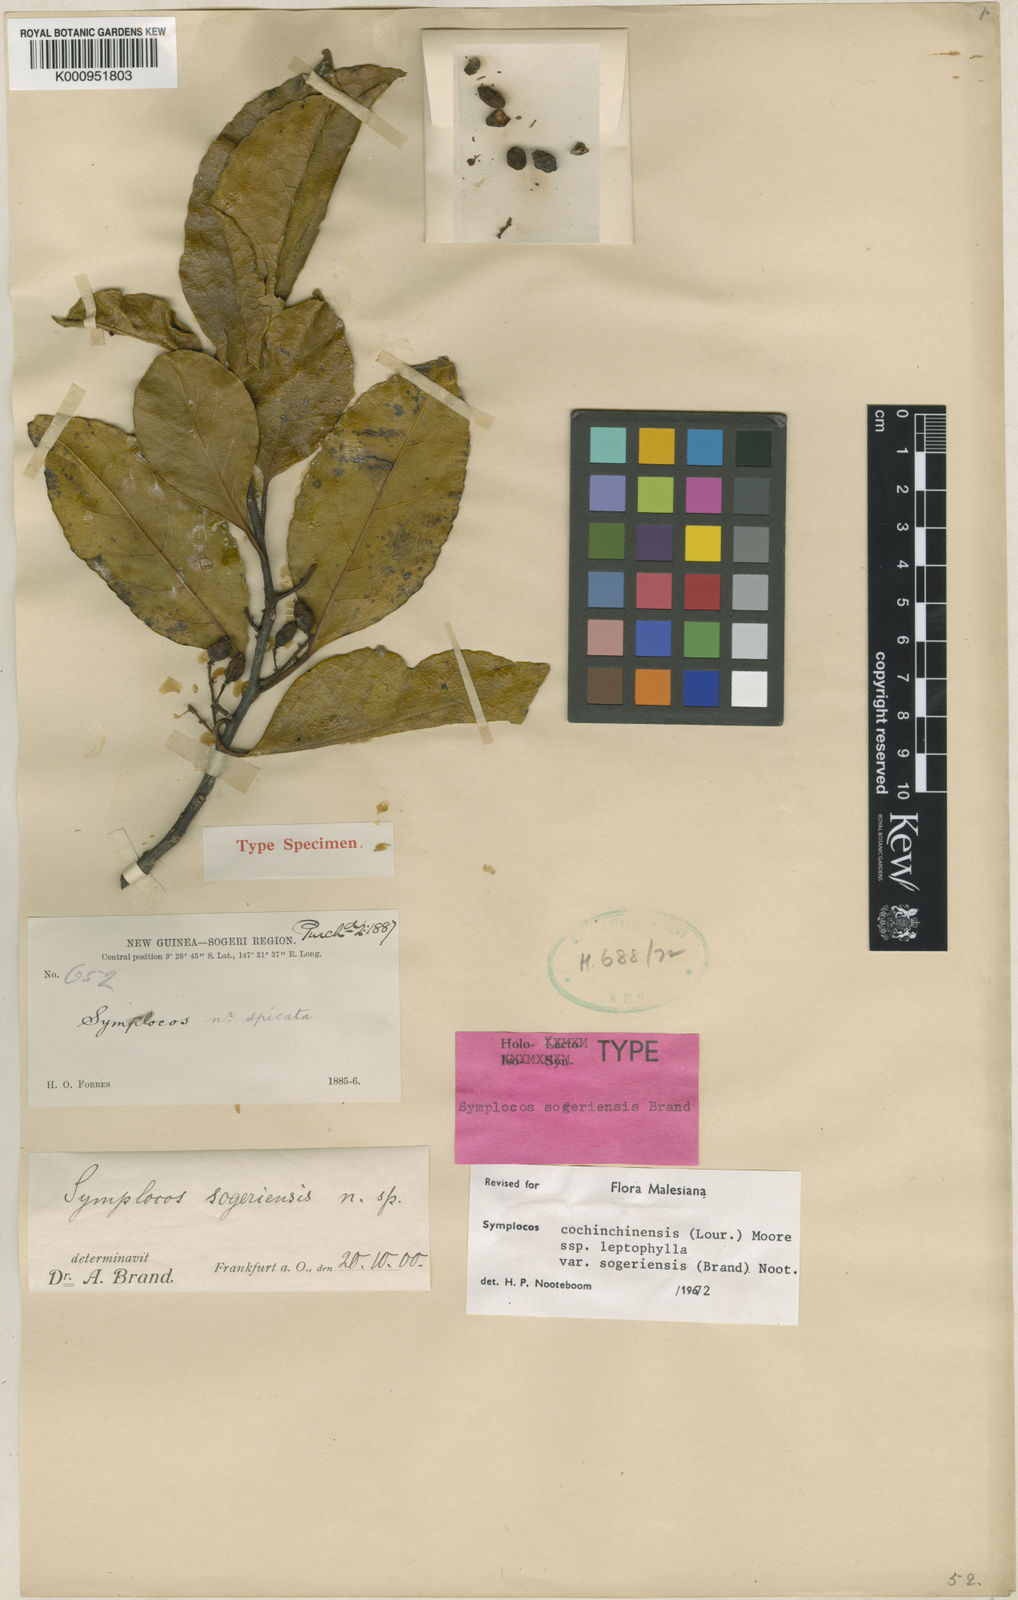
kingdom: Plantae
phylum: Tracheophyta
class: Magnoliopsida
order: Ericales
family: Symplocaceae
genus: Symplocos
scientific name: Symplocos cochinchinensis
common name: Buff hazelwood
